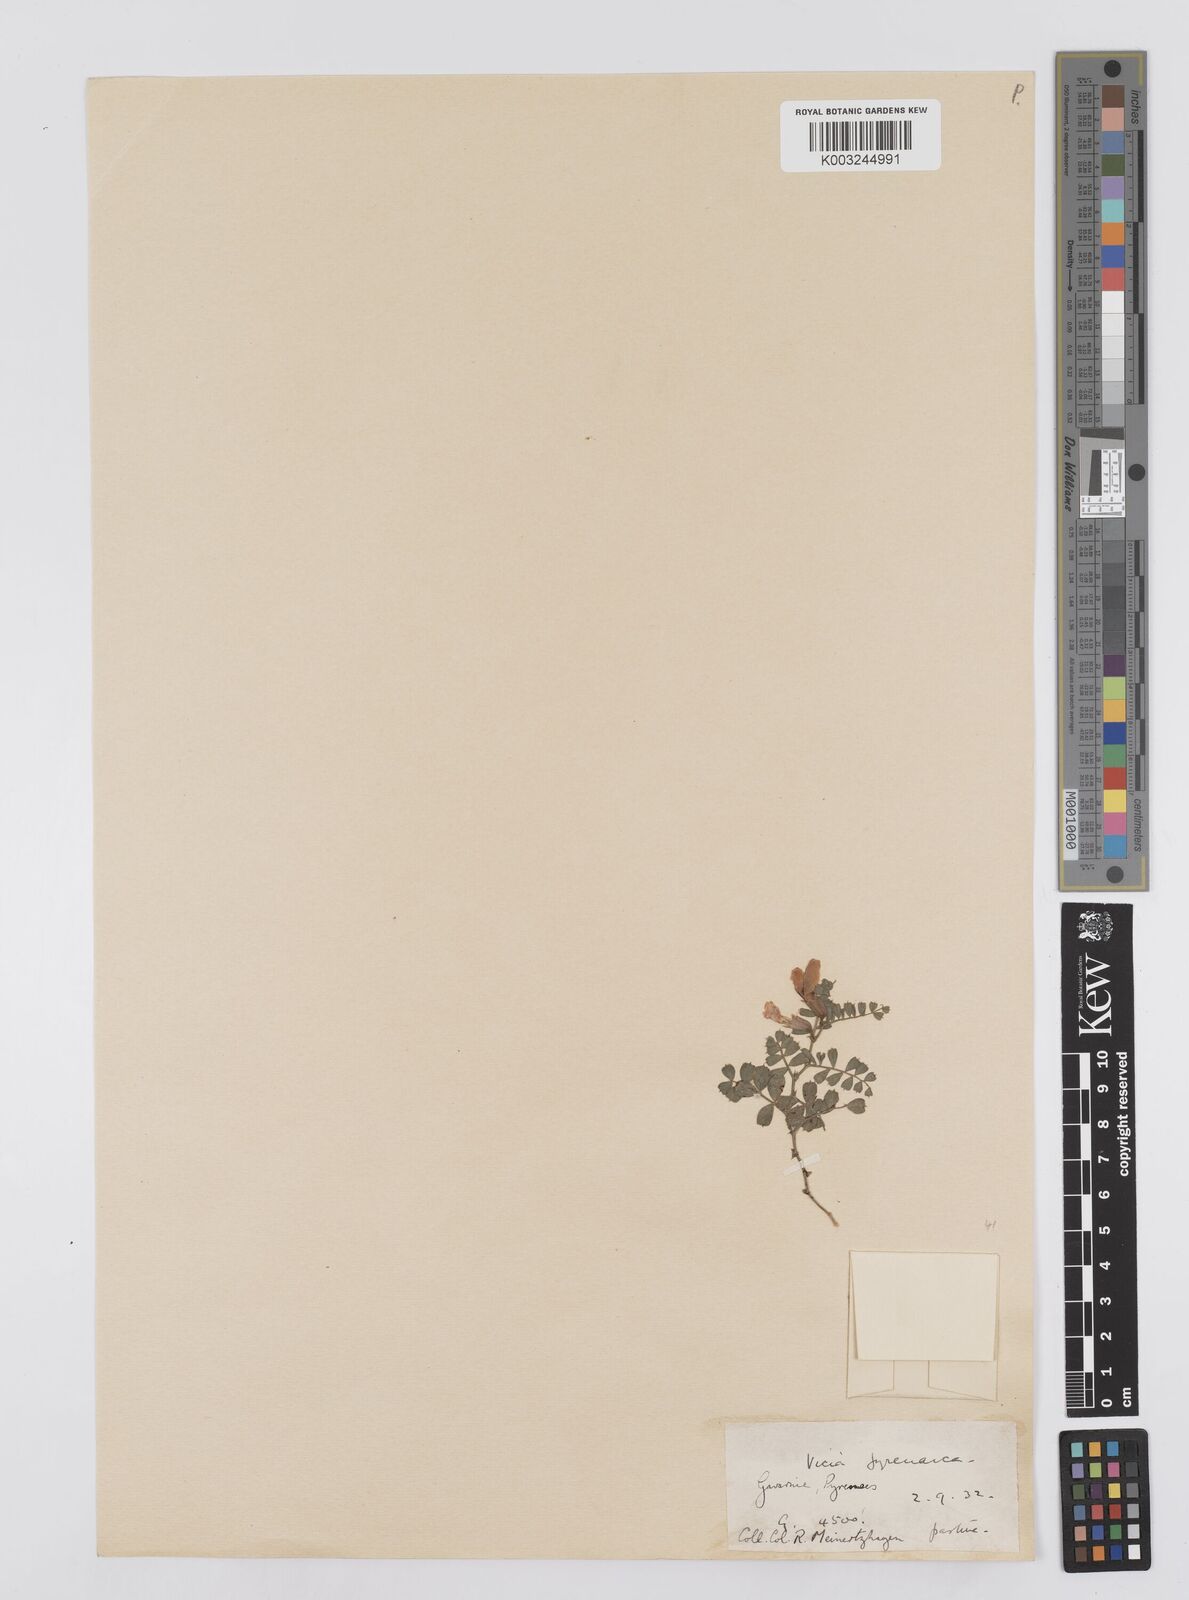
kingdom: Plantae
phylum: Tracheophyta
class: Magnoliopsida
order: Fabales
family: Fabaceae
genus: Vicia
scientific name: Vicia pyrenaica
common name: Pyrenean vetch
